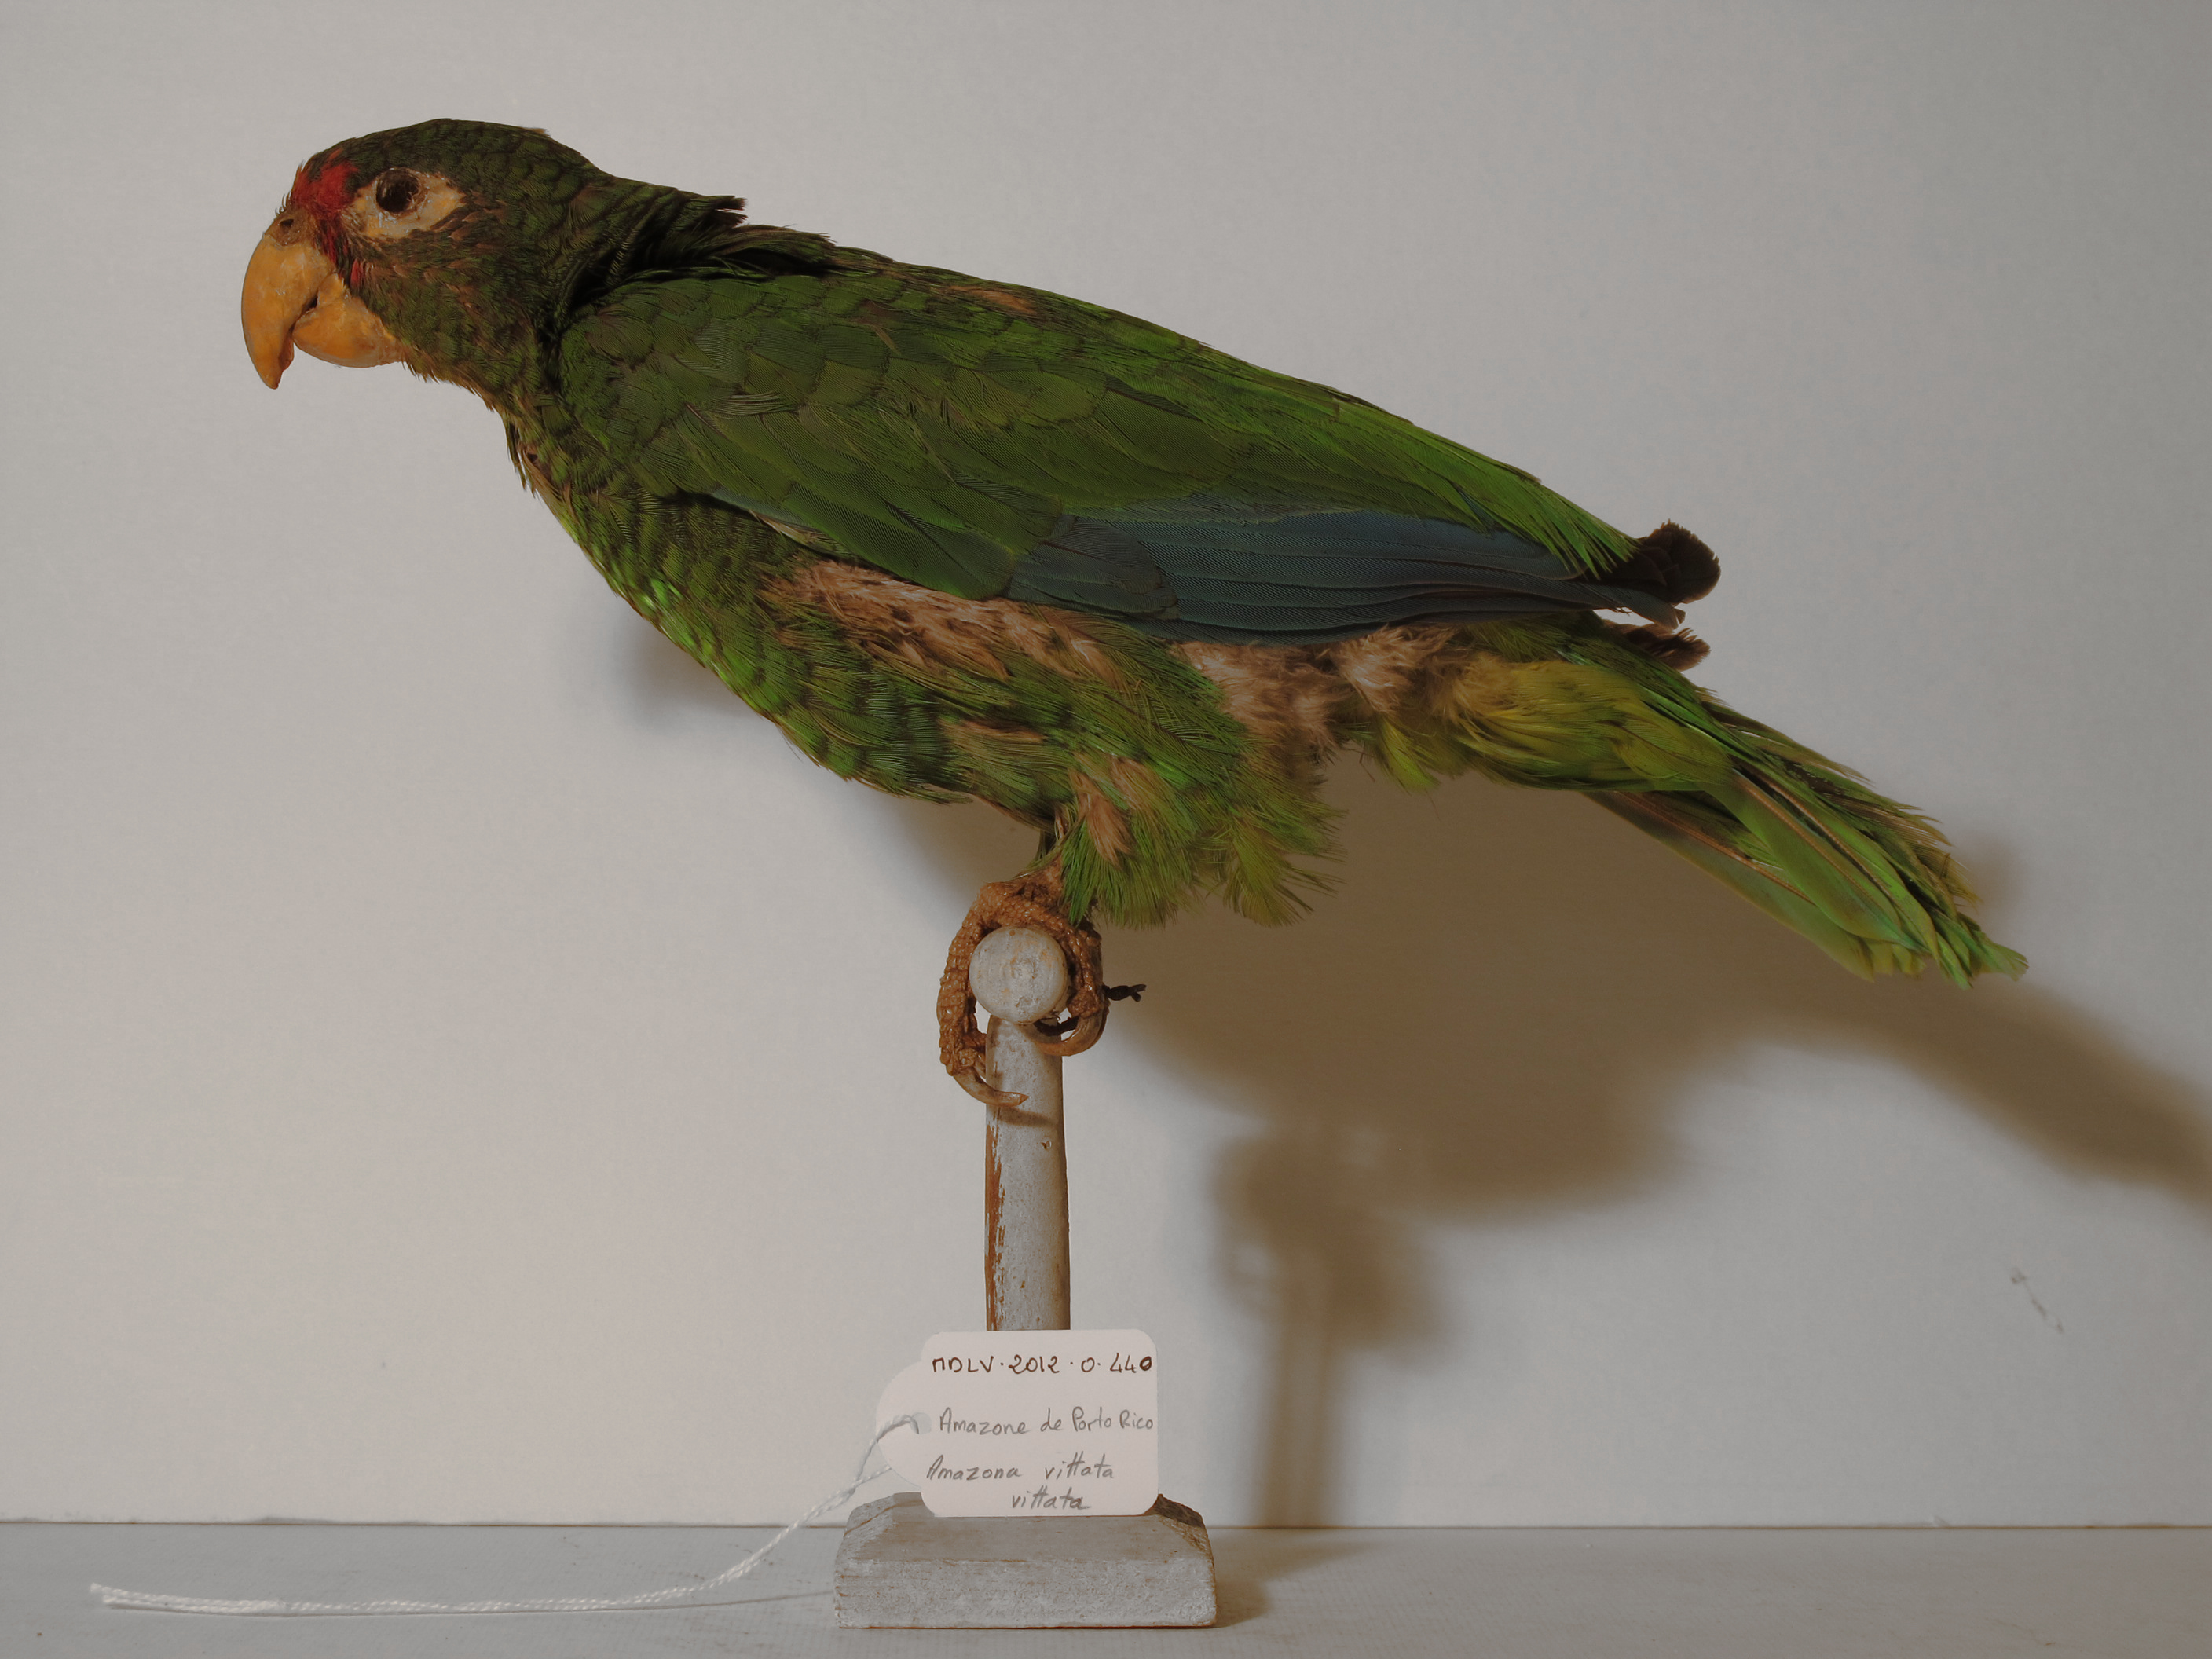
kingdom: Animalia
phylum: Chordata
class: Aves
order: Psittaciformes
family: Psittacidae
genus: Amazona
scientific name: Amazona vittata
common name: Puerto Rican Amazon
